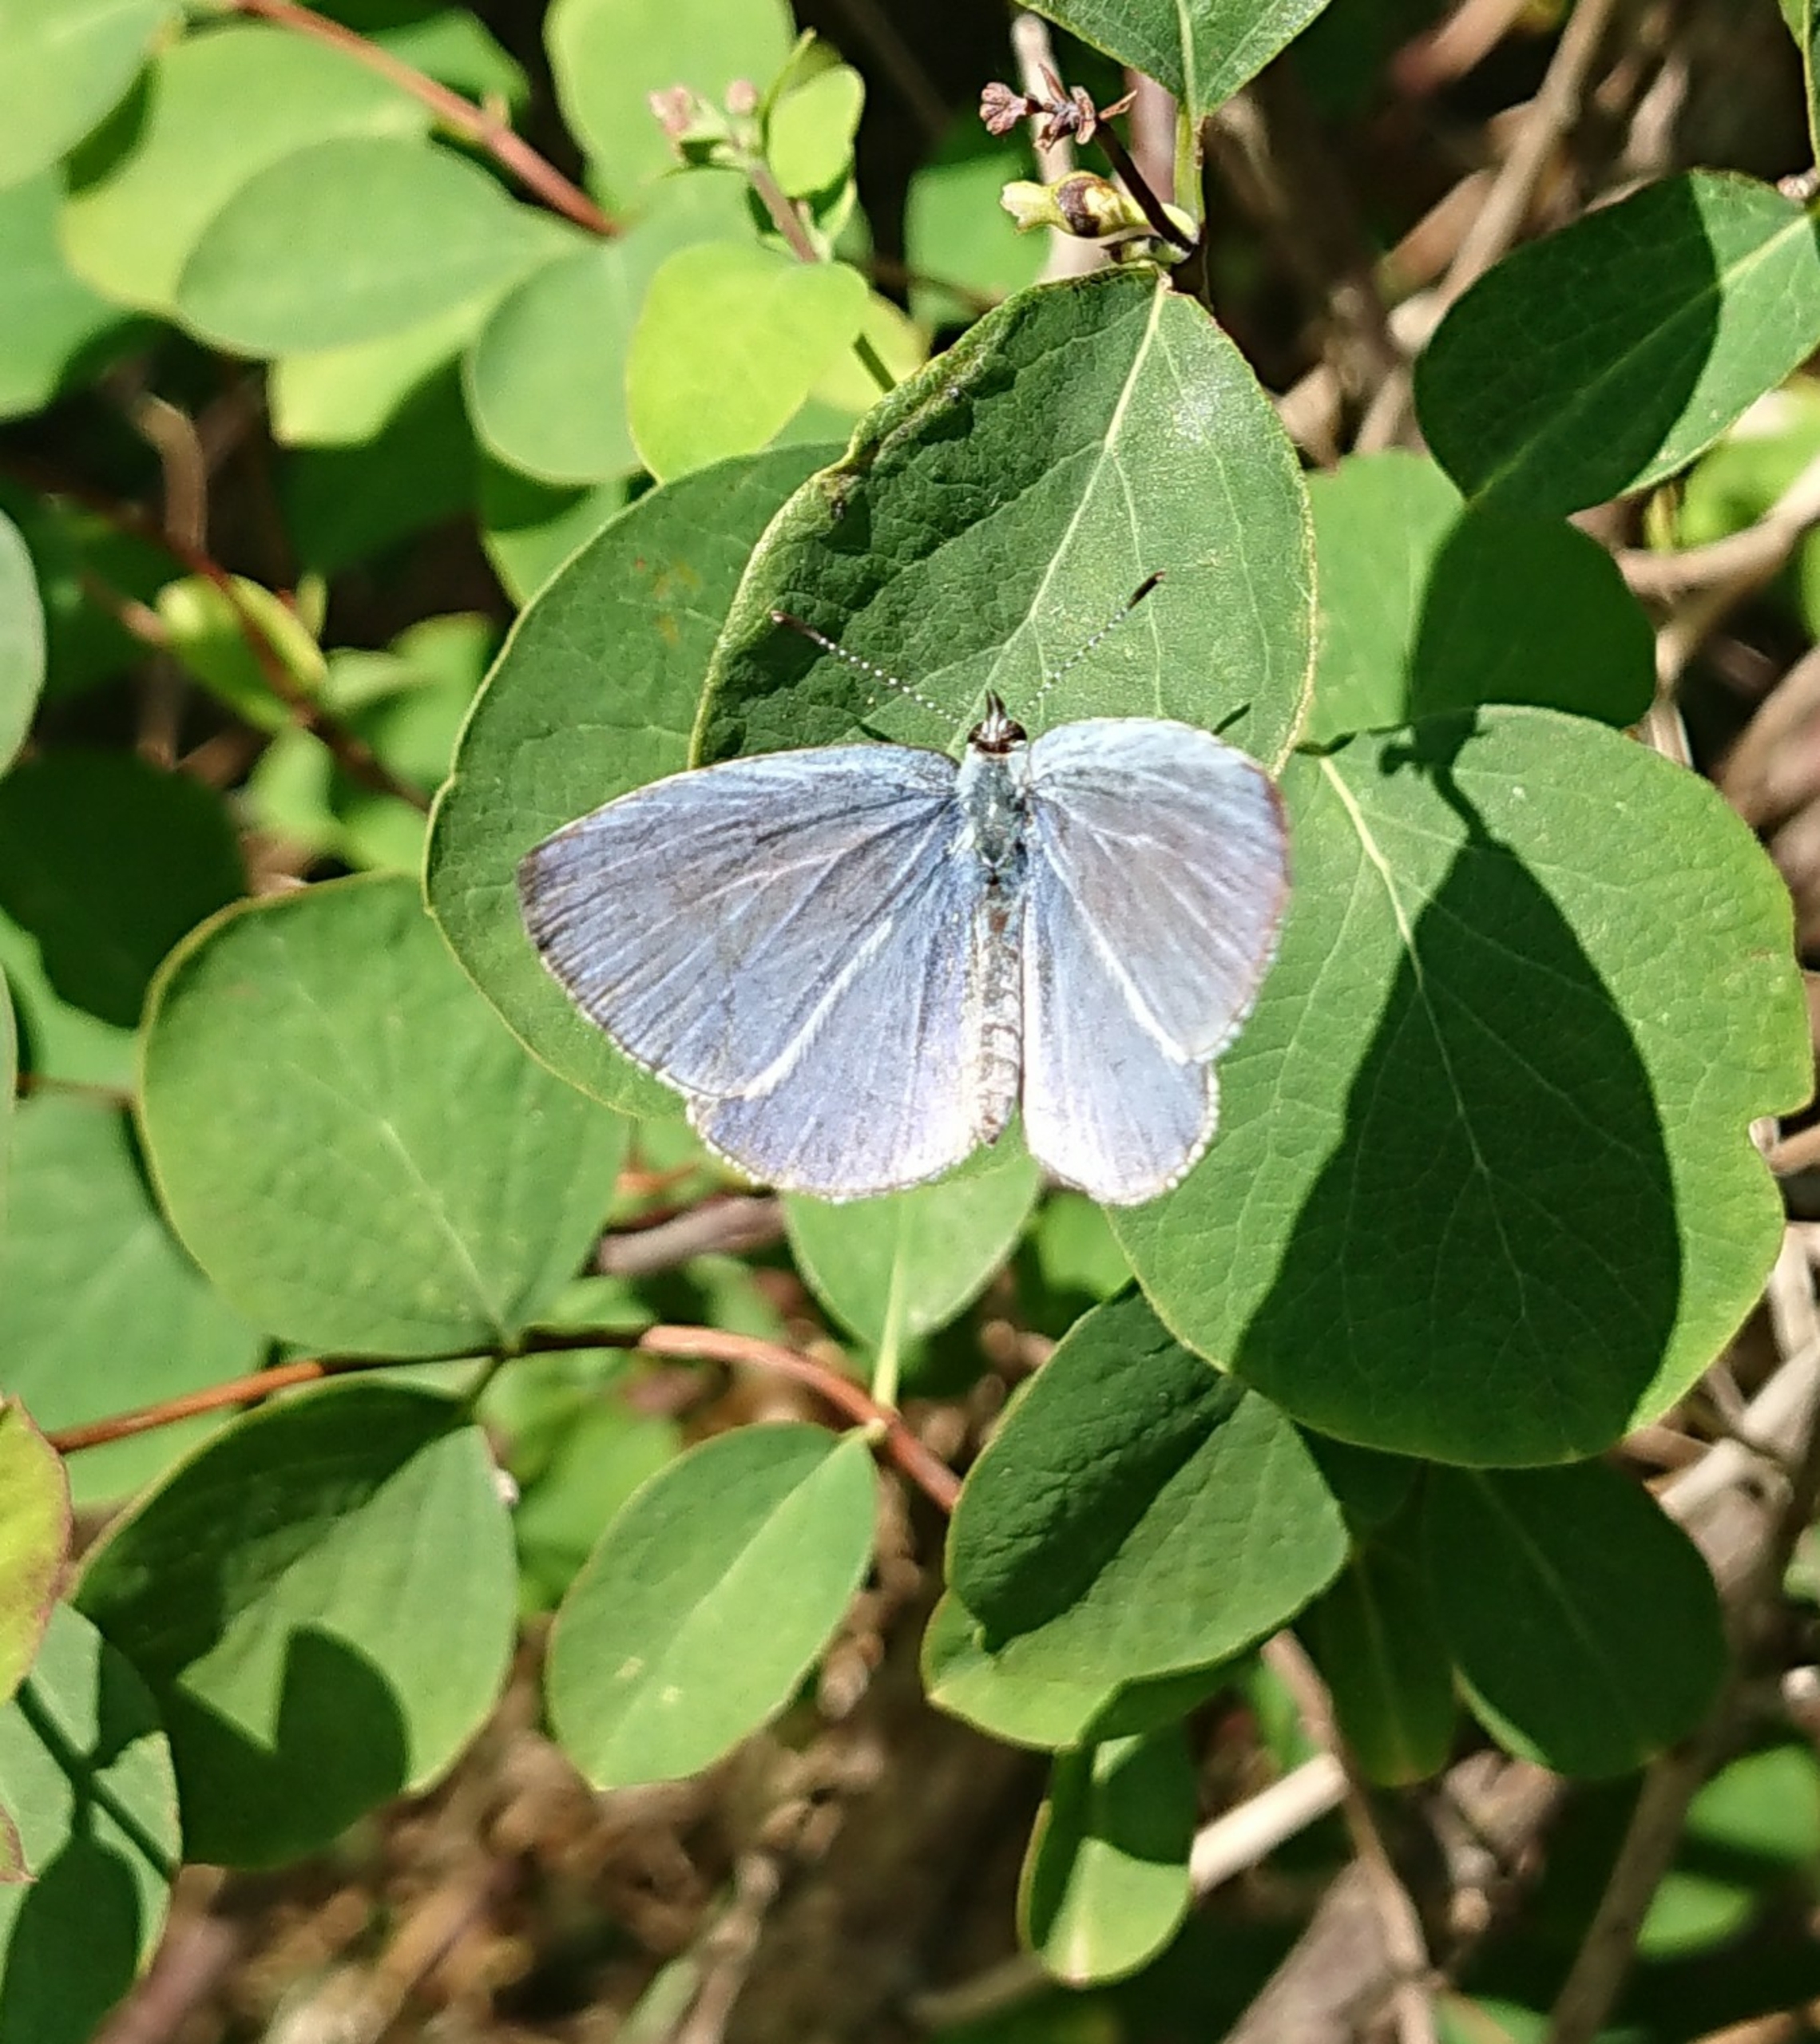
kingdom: Animalia
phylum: Arthropoda
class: Insecta
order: Lepidoptera
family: Lycaenidae
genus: Celastrina
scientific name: Celastrina argiolus
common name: Skovblåfugl
